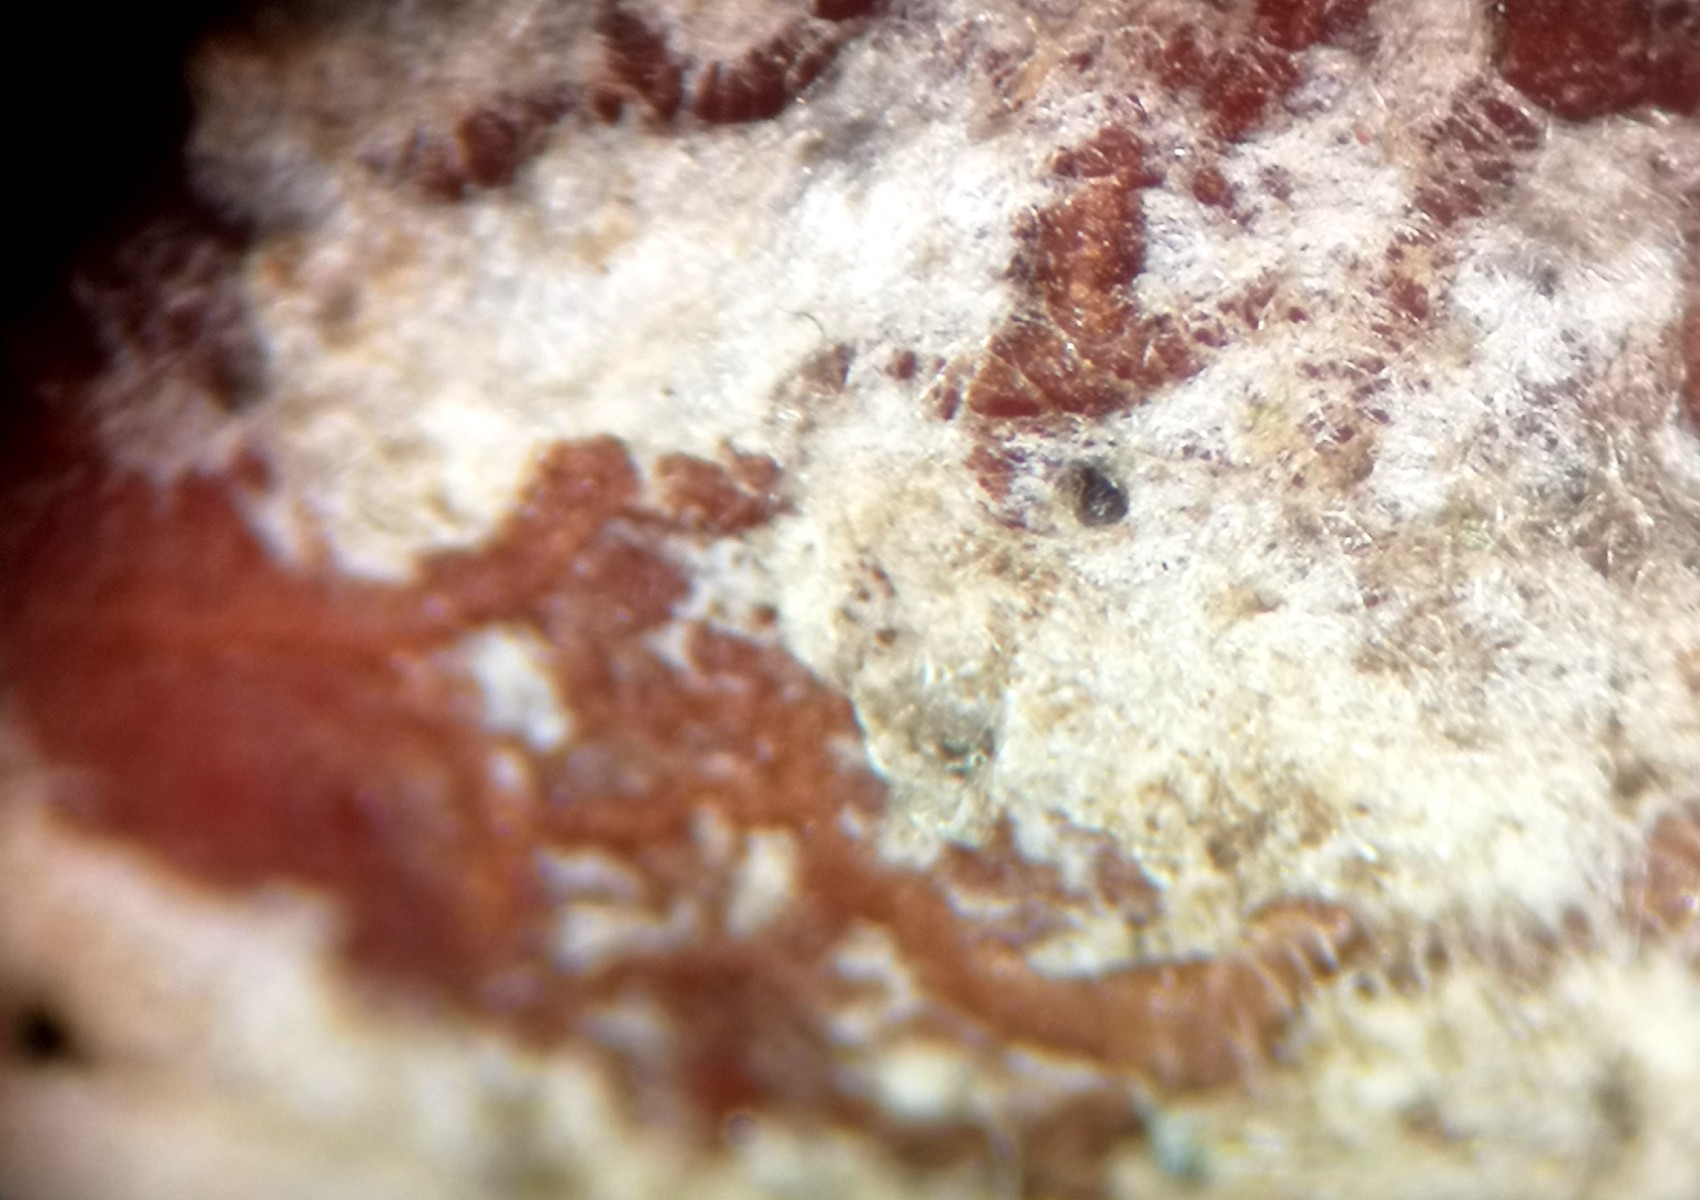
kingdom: Fungi
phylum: Ascomycota
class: Leotiomycetes
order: Helotiales
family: Erysiphaceae
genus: Podosphaera
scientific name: Podosphaera pannosa
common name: Rose mildew
